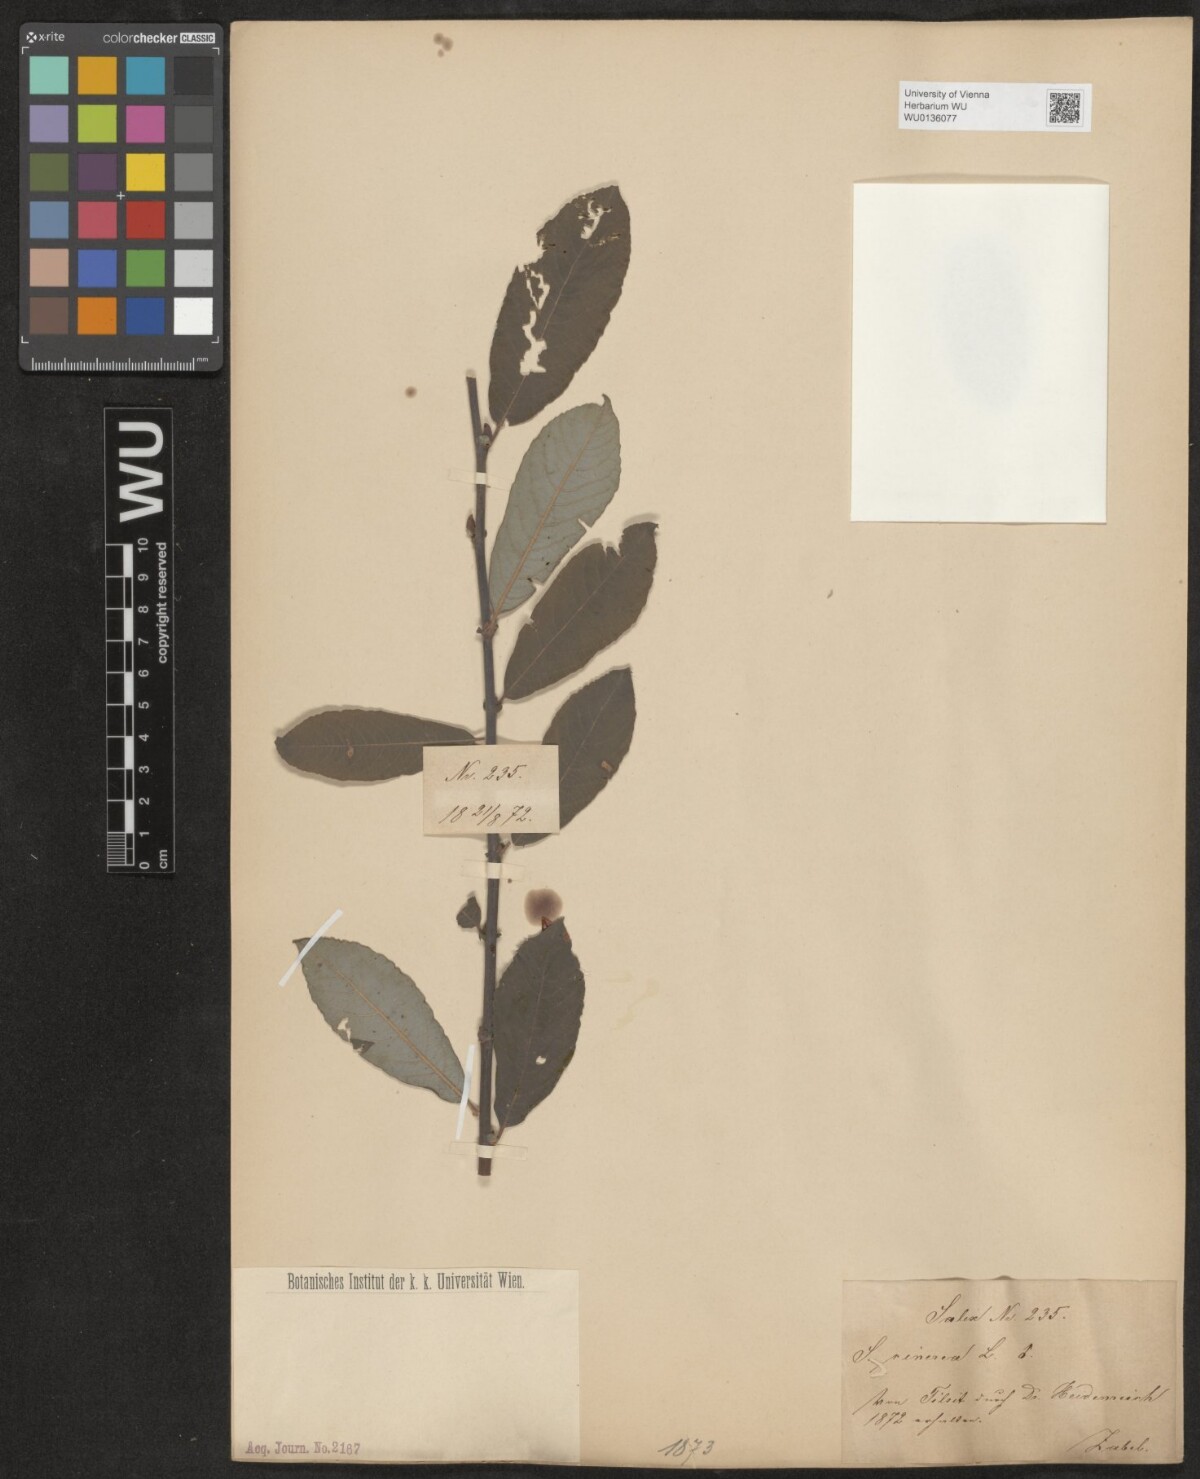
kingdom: Plantae
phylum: Tracheophyta
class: Magnoliopsida
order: Malpighiales
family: Salicaceae
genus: Salix
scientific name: Salix cinerea
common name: Common sallow
